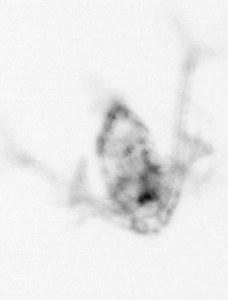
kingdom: Animalia
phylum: Arthropoda
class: Copepoda
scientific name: Copepoda
